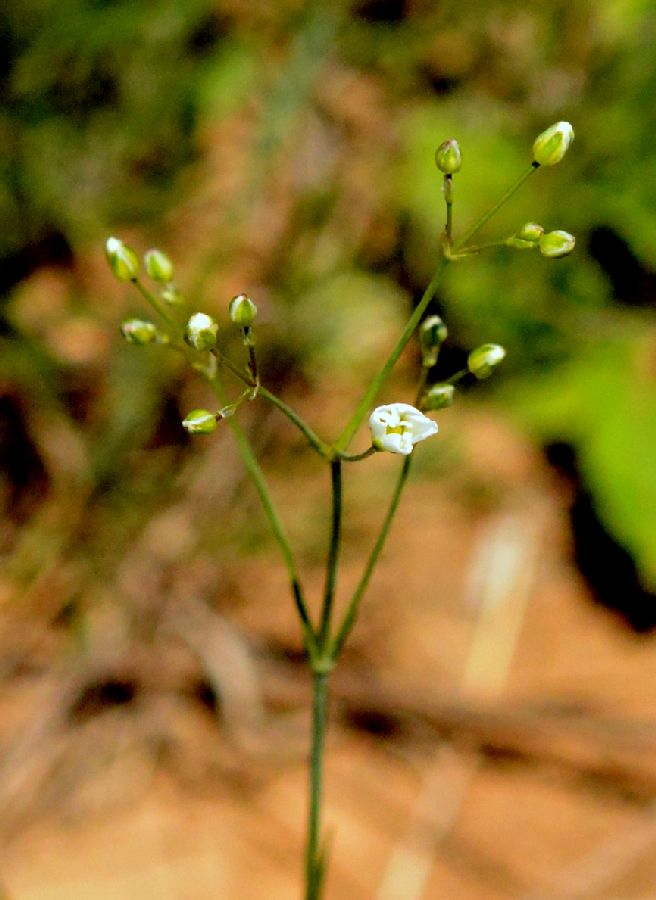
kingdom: Plantae
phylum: Tracheophyta
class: Magnoliopsida
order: Caryophyllales
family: Caryophyllaceae
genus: Eremogone
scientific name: Eremogone macradenia
